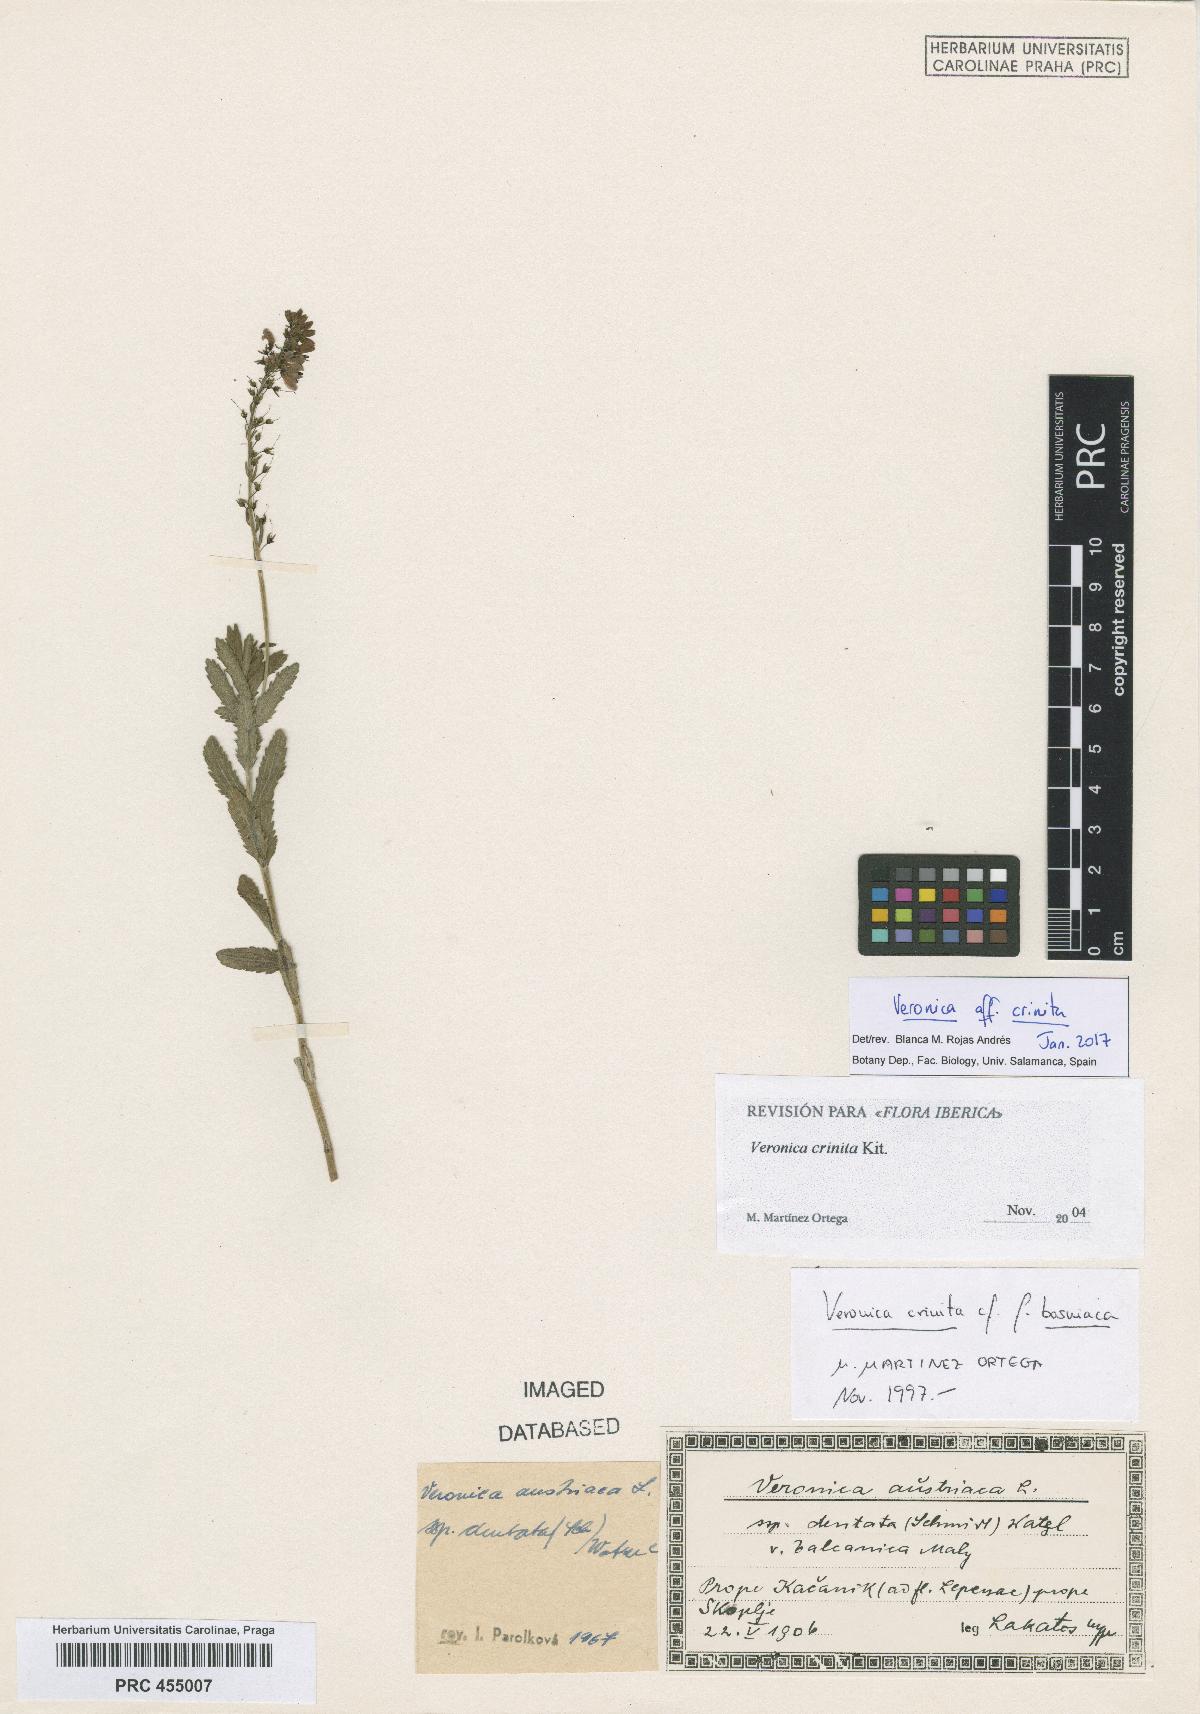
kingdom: Plantae
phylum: Tracheophyta
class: Magnoliopsida
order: Lamiales
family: Plantaginaceae
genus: Veronica
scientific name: Veronica teucrium
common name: Large speedwell
